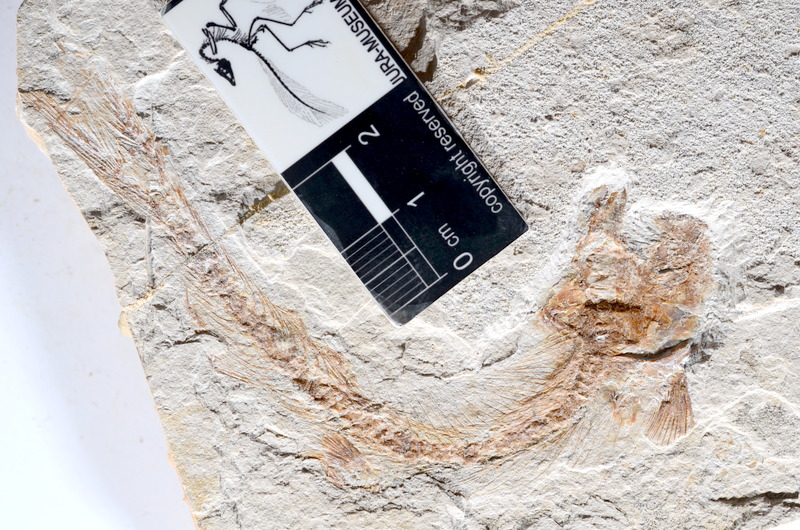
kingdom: Animalia
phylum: Chordata
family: Ascalaboidae
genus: Tharsis
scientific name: Tharsis dubius
